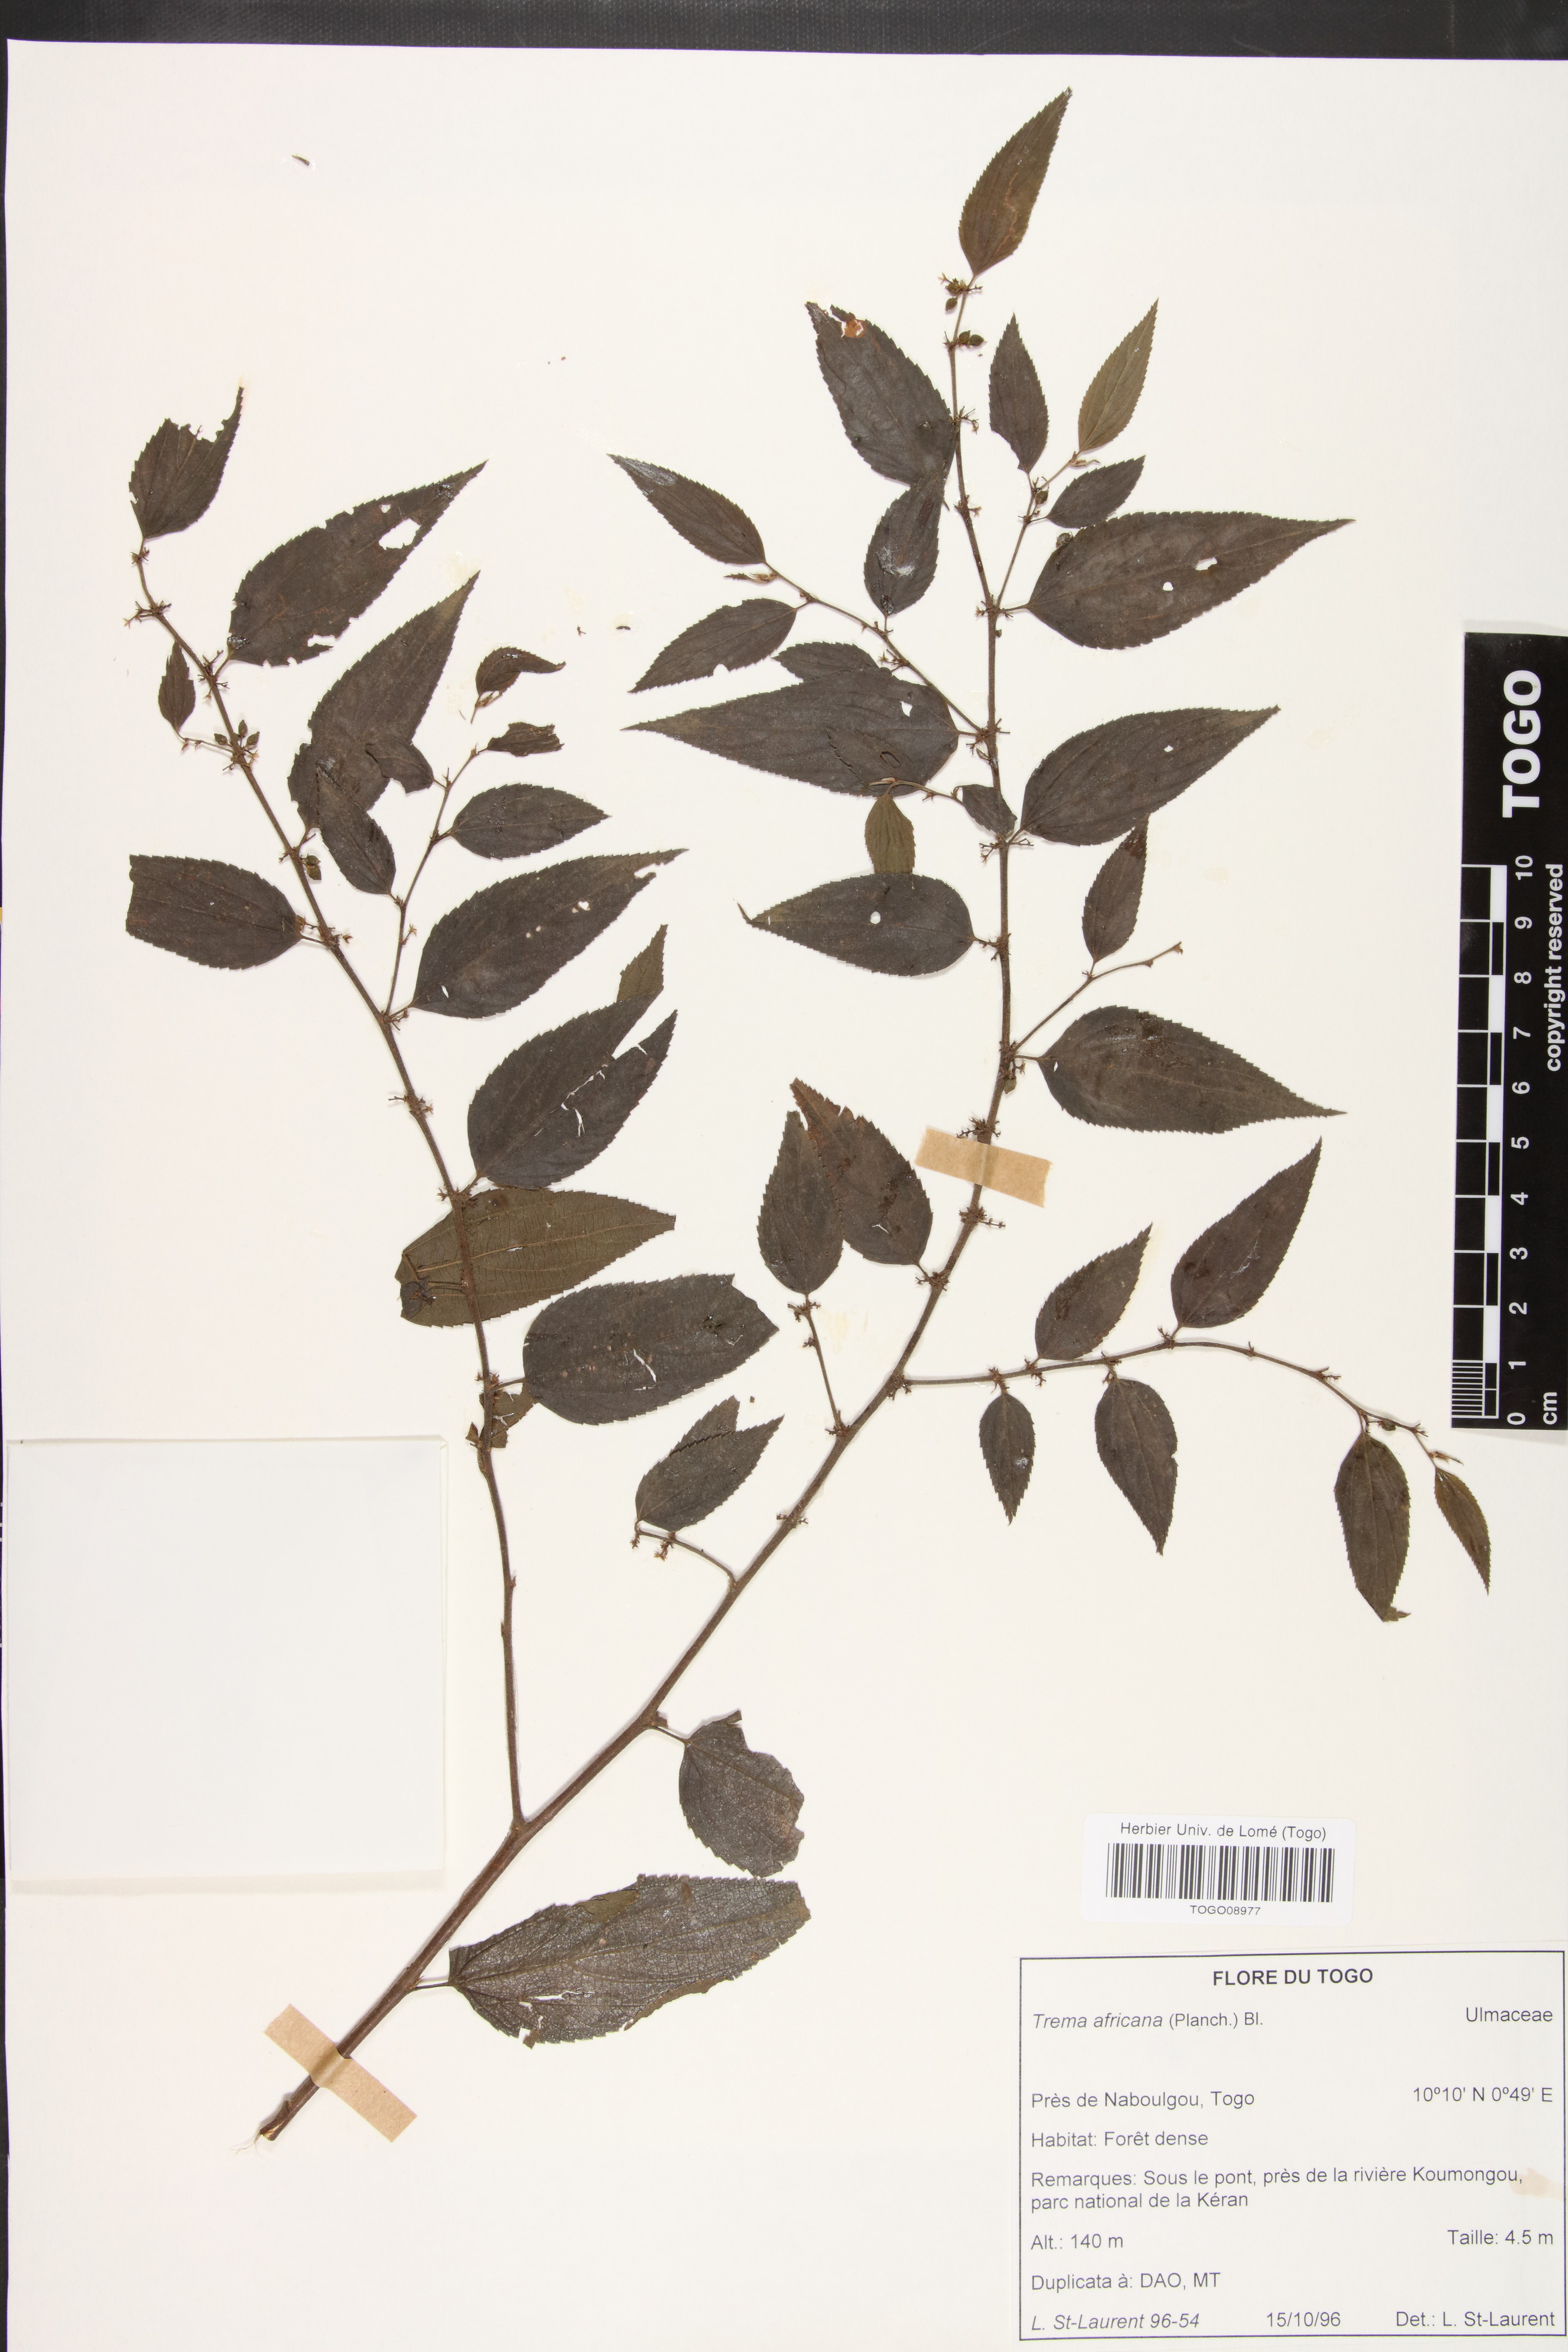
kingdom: Plantae
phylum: Tracheophyta
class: Magnoliopsida
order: Rosales
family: Cannabaceae
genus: Trema
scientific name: Trema orientale
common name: Indian charcoal tree
